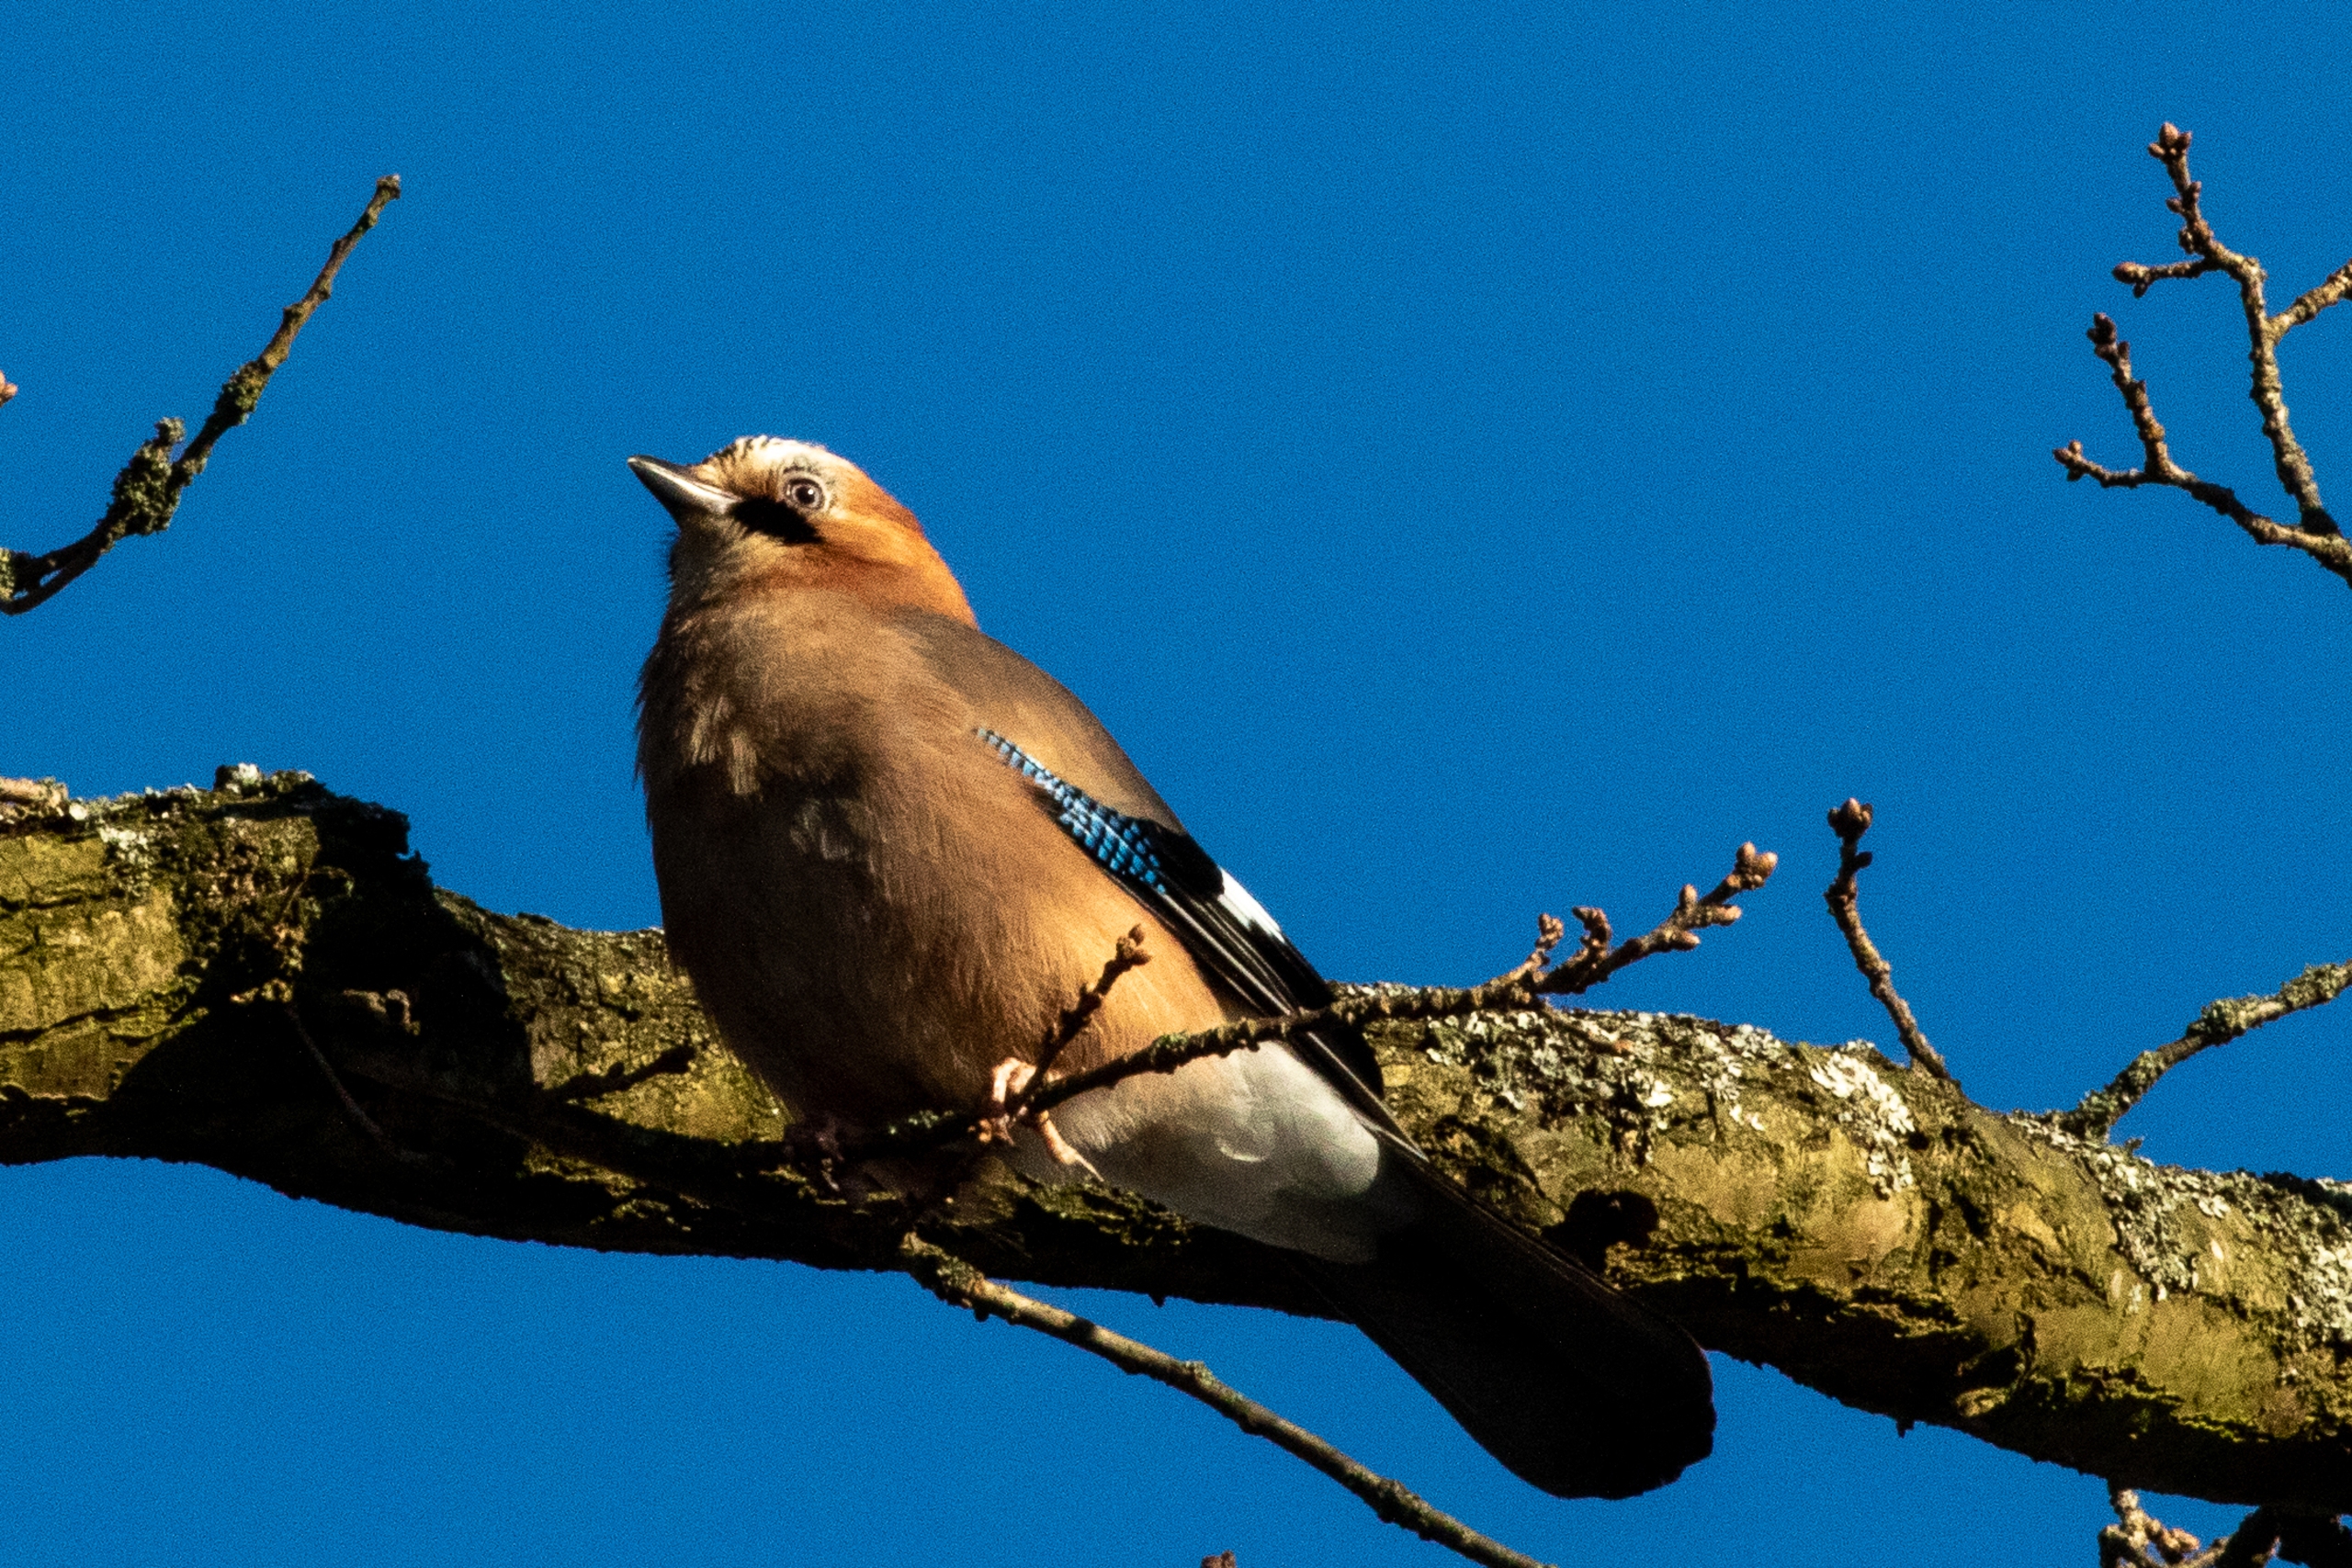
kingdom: Animalia
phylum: Chordata
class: Aves
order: Passeriformes
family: Corvidae
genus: Garrulus
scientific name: Garrulus glandarius
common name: Skovskade
